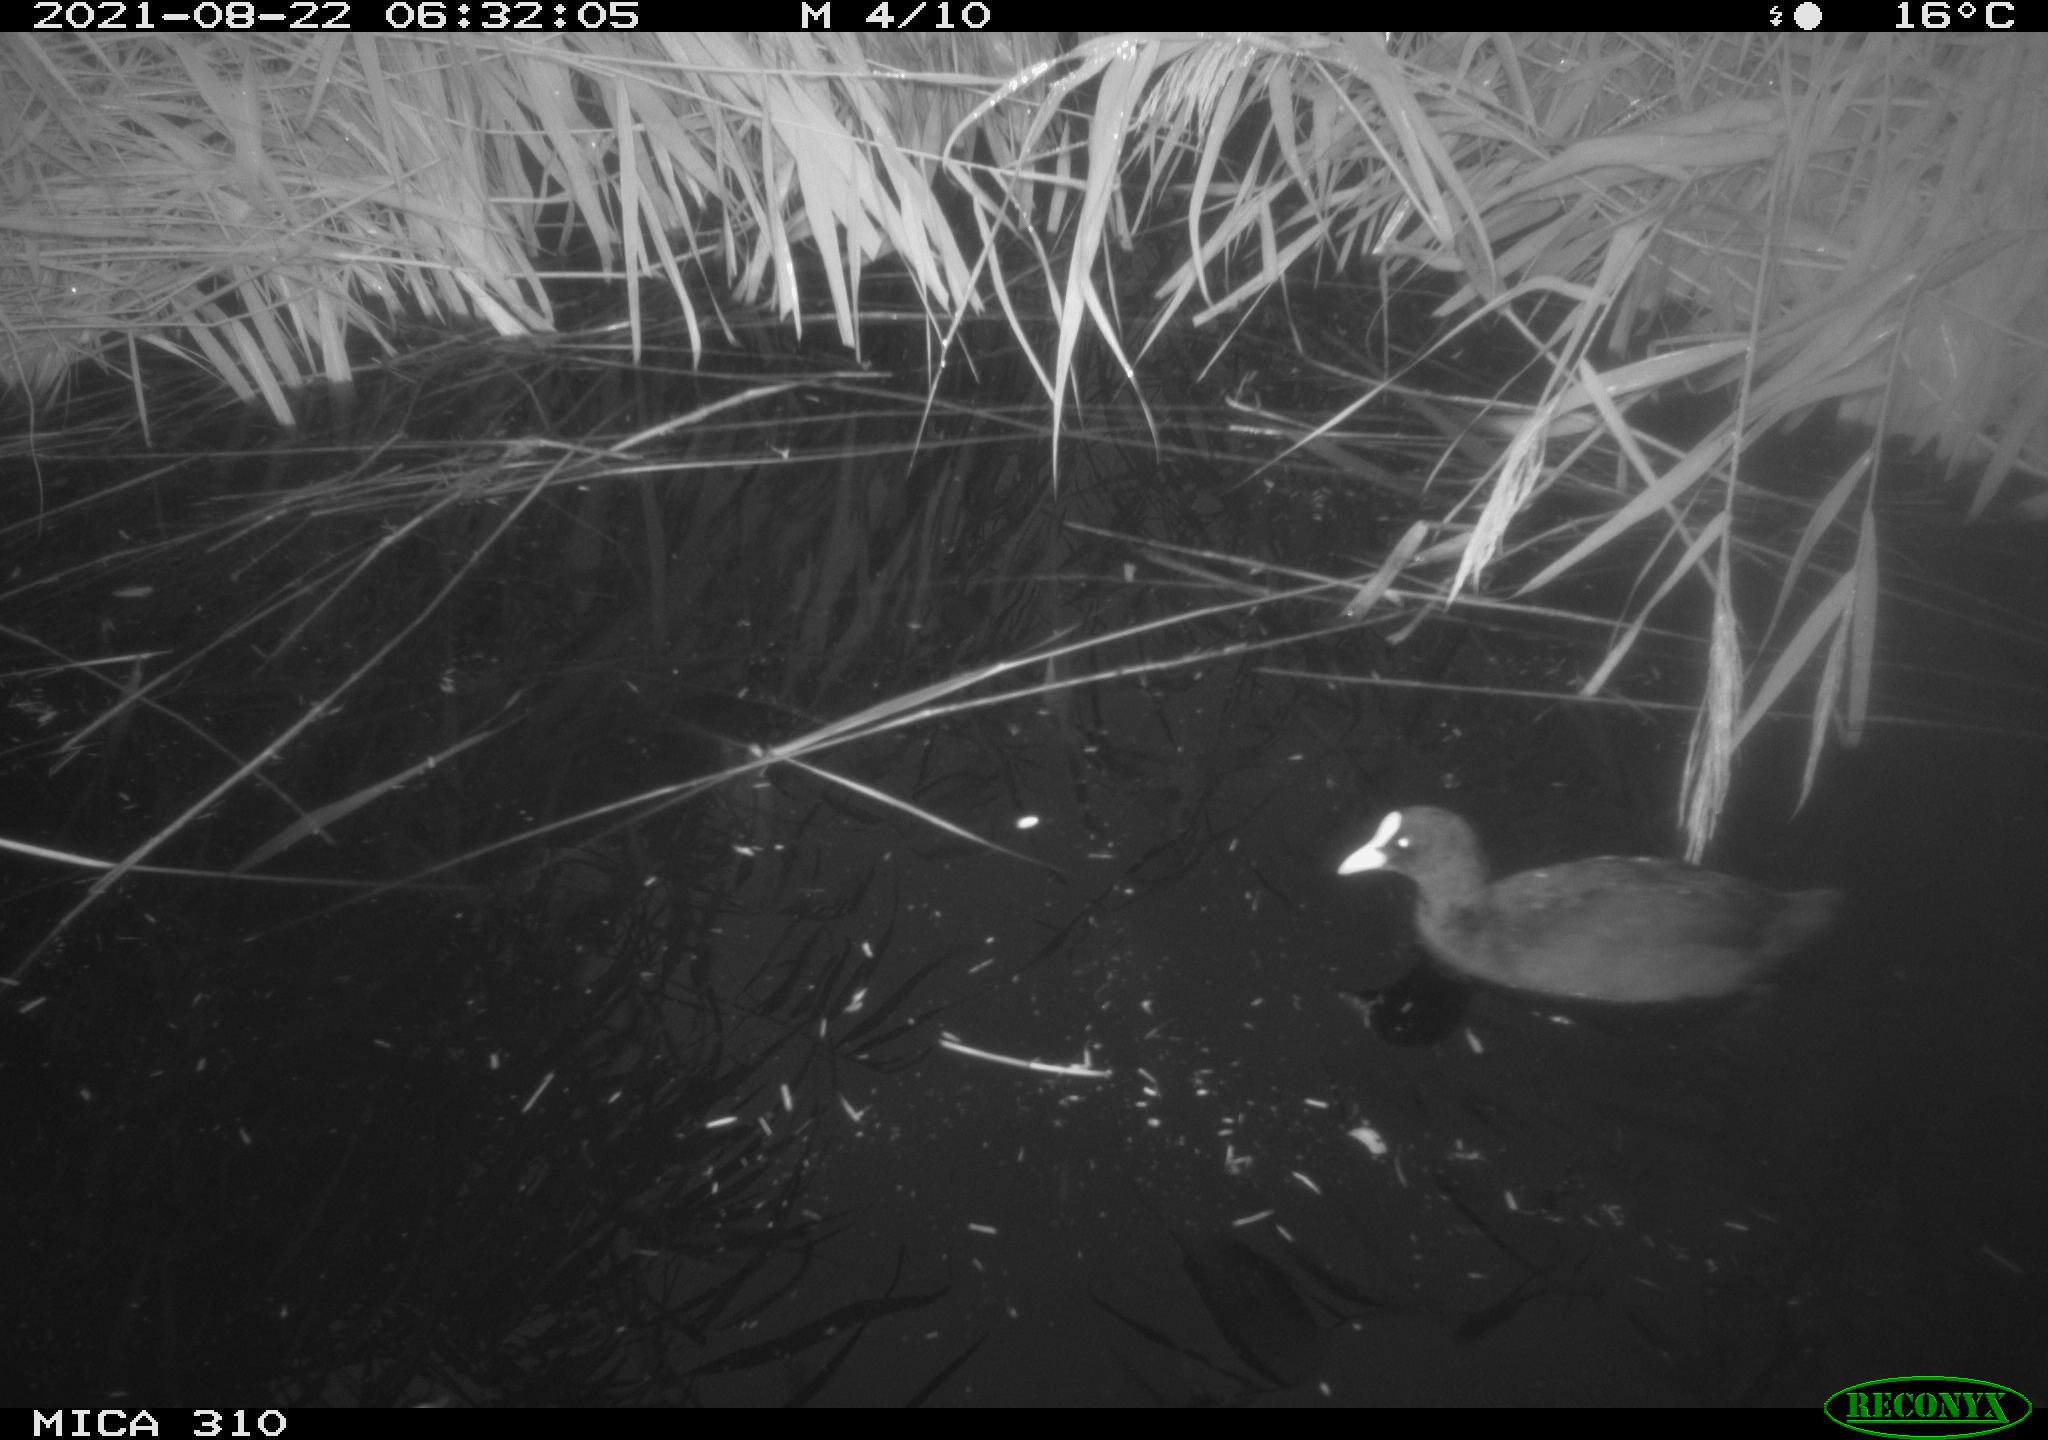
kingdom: Animalia
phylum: Chordata
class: Aves
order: Gruiformes
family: Rallidae
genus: Gallinula
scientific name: Gallinula chloropus
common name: Common moorhen
